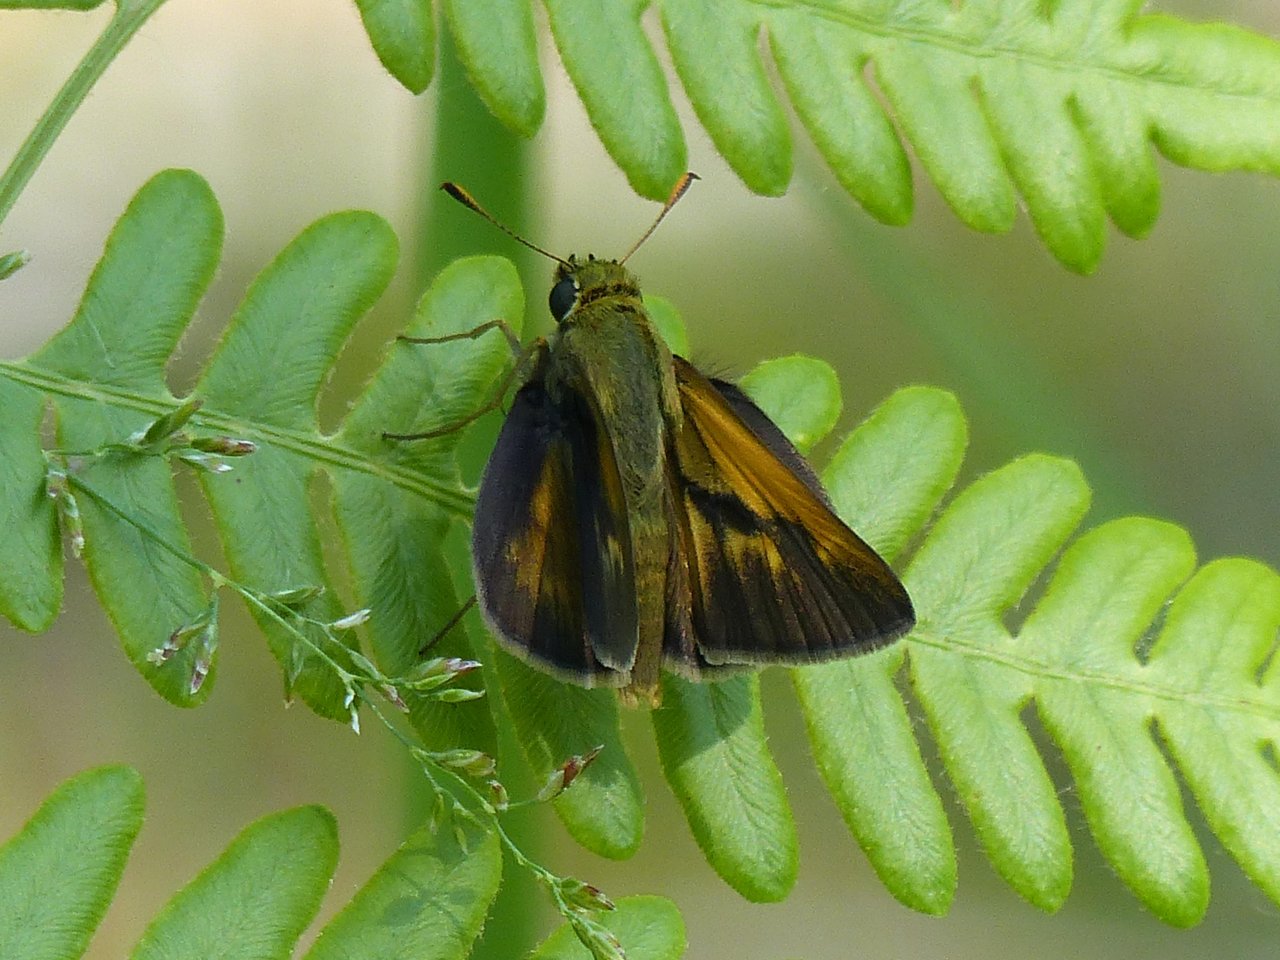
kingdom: Animalia
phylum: Arthropoda
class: Insecta
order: Lepidoptera
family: Hesperiidae
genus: Polites
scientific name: Polites
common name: Crossline Skipper
